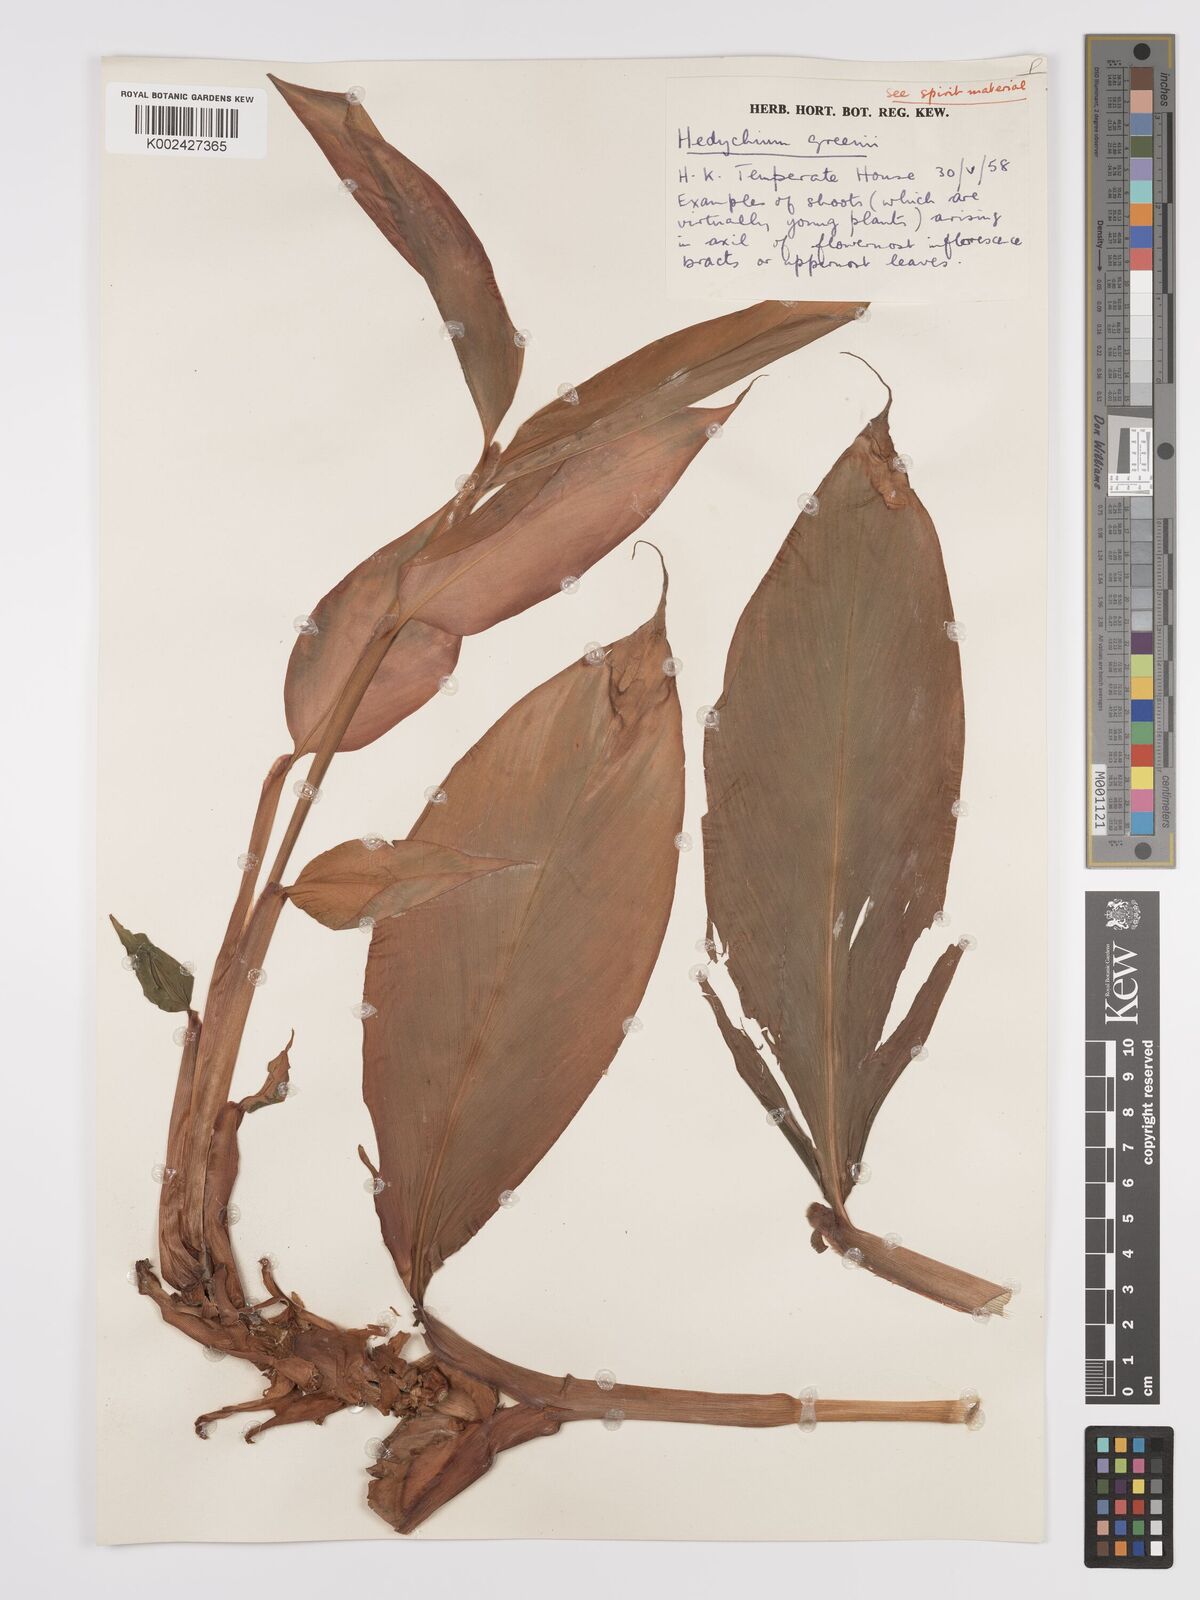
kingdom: Plantae
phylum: Tracheophyta
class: Liliopsida
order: Zingiberales
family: Zingiberaceae
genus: Hedychium
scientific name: Hedychium greenii
